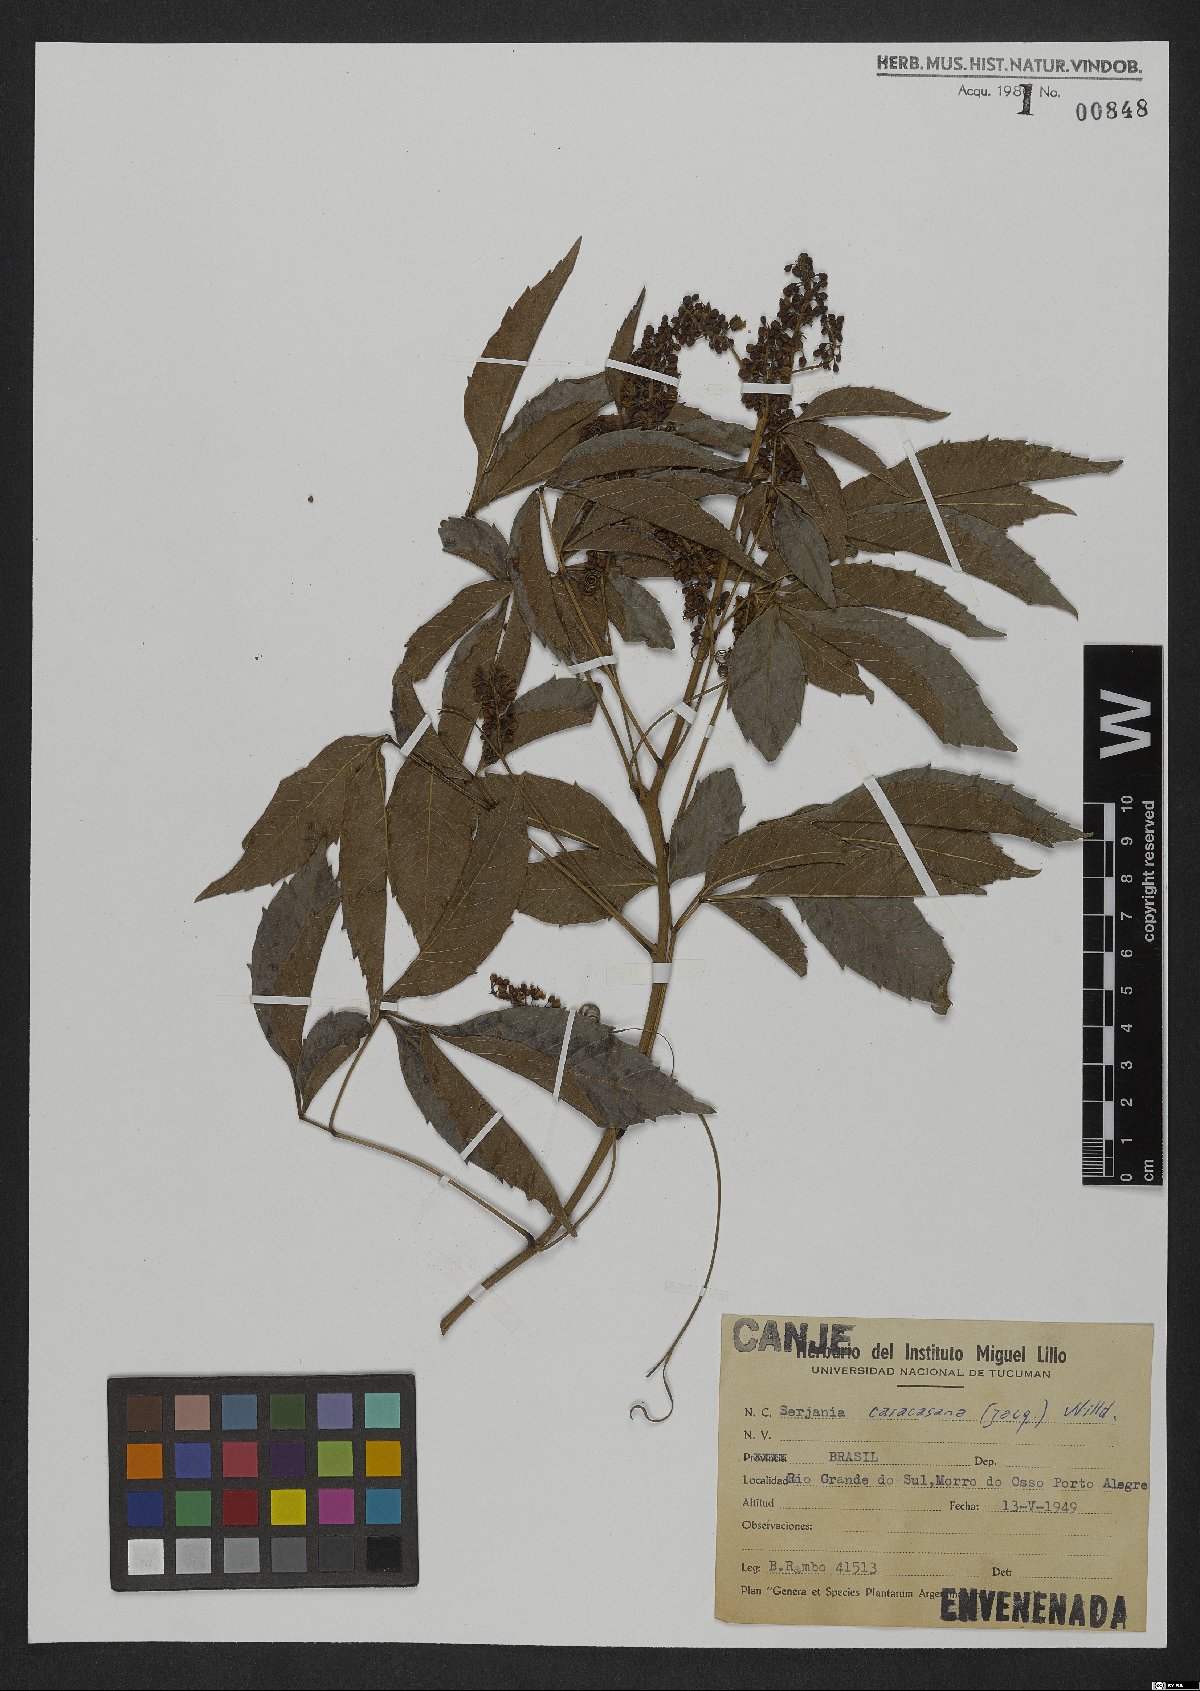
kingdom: Plantae
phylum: Tracheophyta
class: Magnoliopsida
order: Sapindales
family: Sapindaceae
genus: Serjania
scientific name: Serjania caracasana
